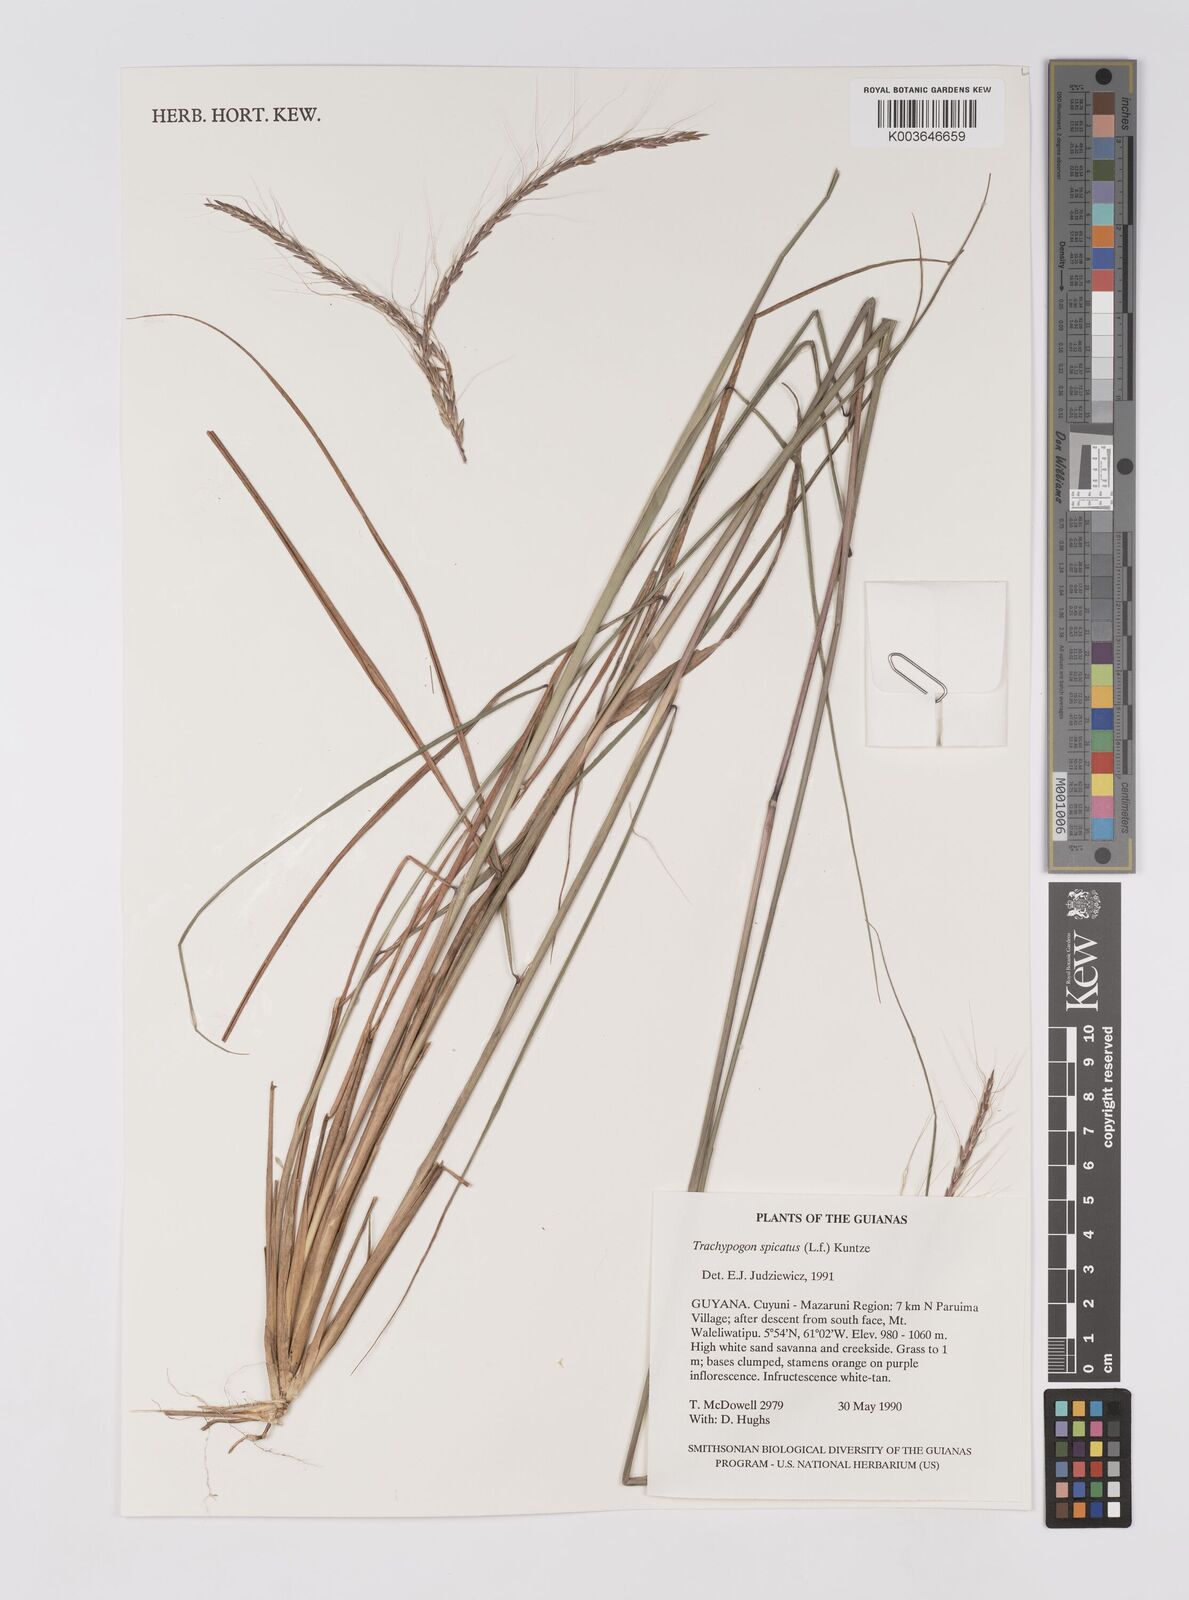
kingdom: Plantae
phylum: Tracheophyta
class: Liliopsida
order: Poales
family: Poaceae
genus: Trachypogon
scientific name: Trachypogon spicatus
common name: Crinkle-awn
